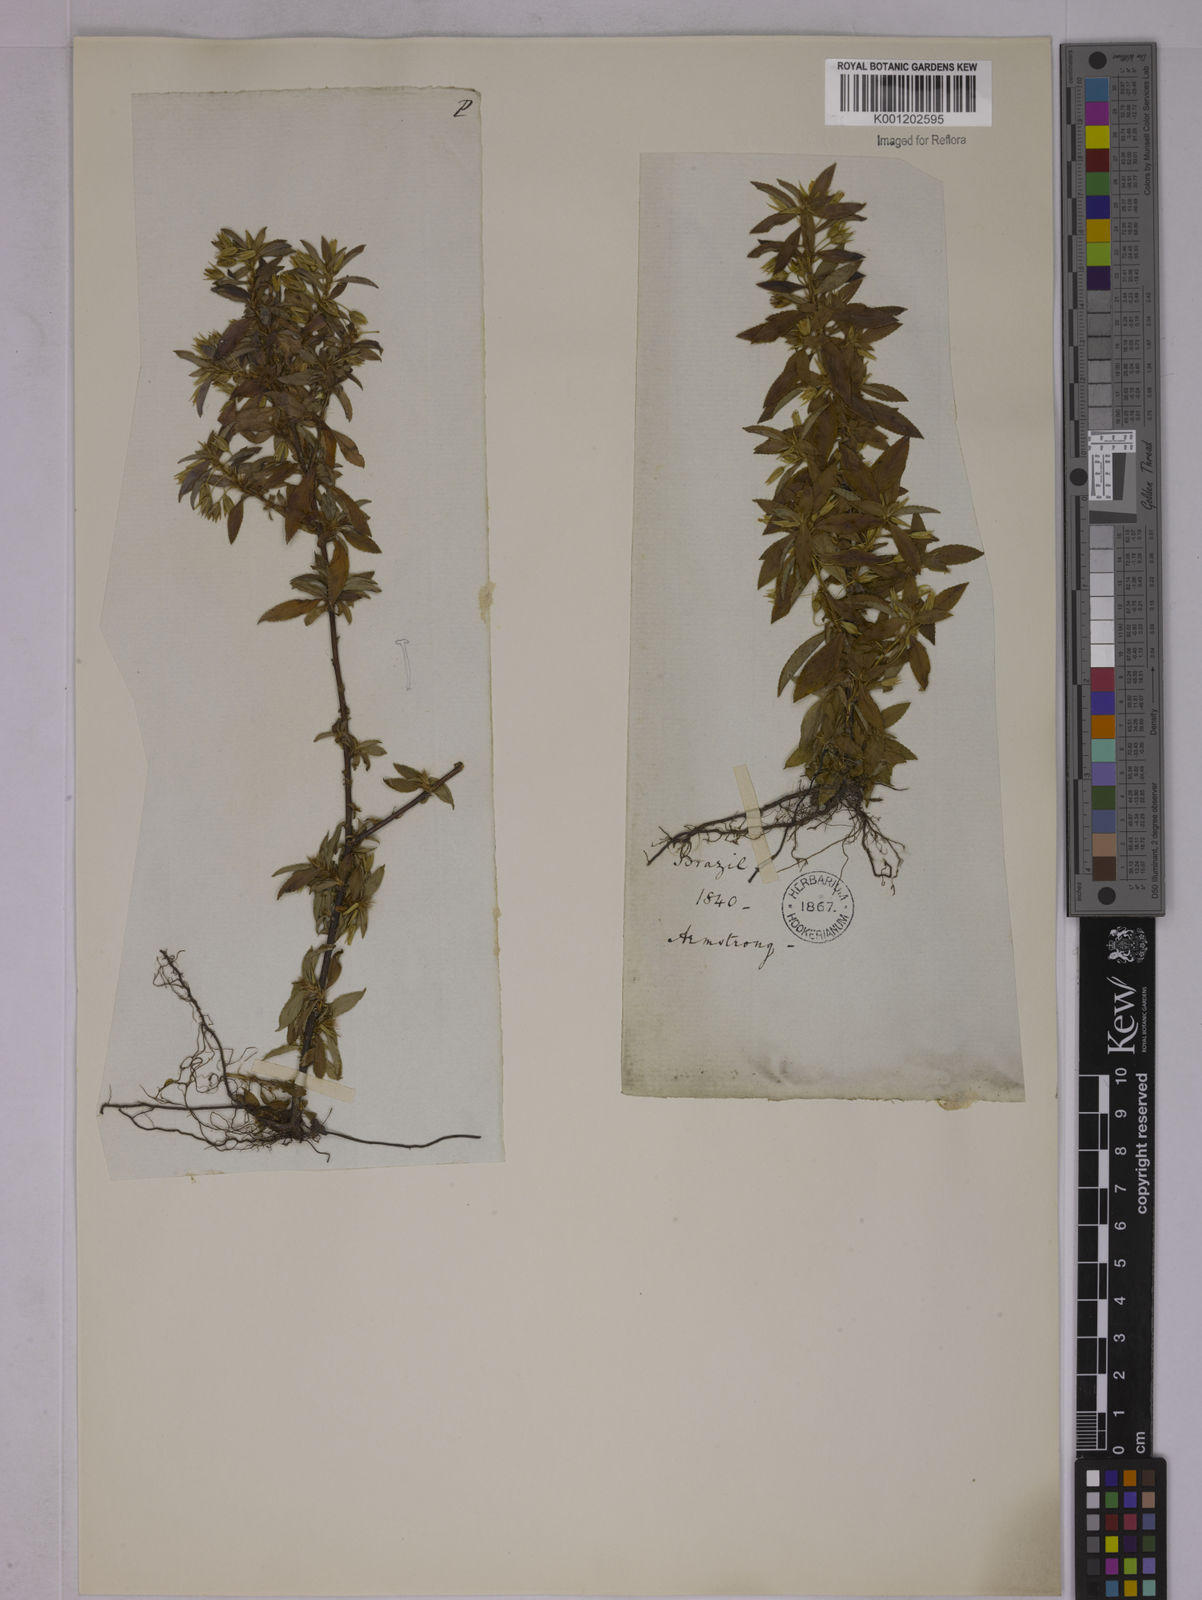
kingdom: Plantae
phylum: Tracheophyta
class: Magnoliopsida
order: Malpighiales
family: Ochnaceae
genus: Sauvagesia
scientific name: Sauvagesia erecta
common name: Creole tea
